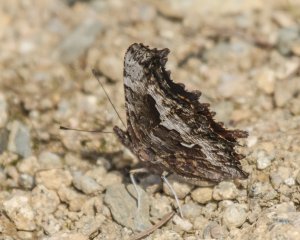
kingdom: Animalia
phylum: Arthropoda
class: Insecta
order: Lepidoptera
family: Nymphalidae
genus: Polygonia
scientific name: Polygonia gracilis
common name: Hoary Comma
